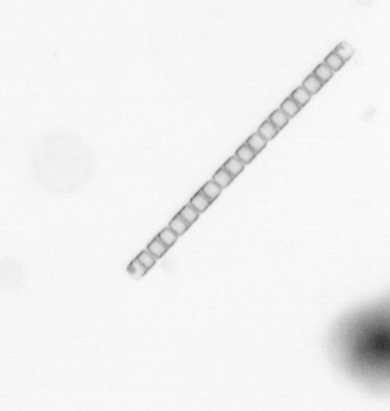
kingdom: Chromista
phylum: Ochrophyta
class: Bacillariophyceae
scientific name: Bacillariophyceae
